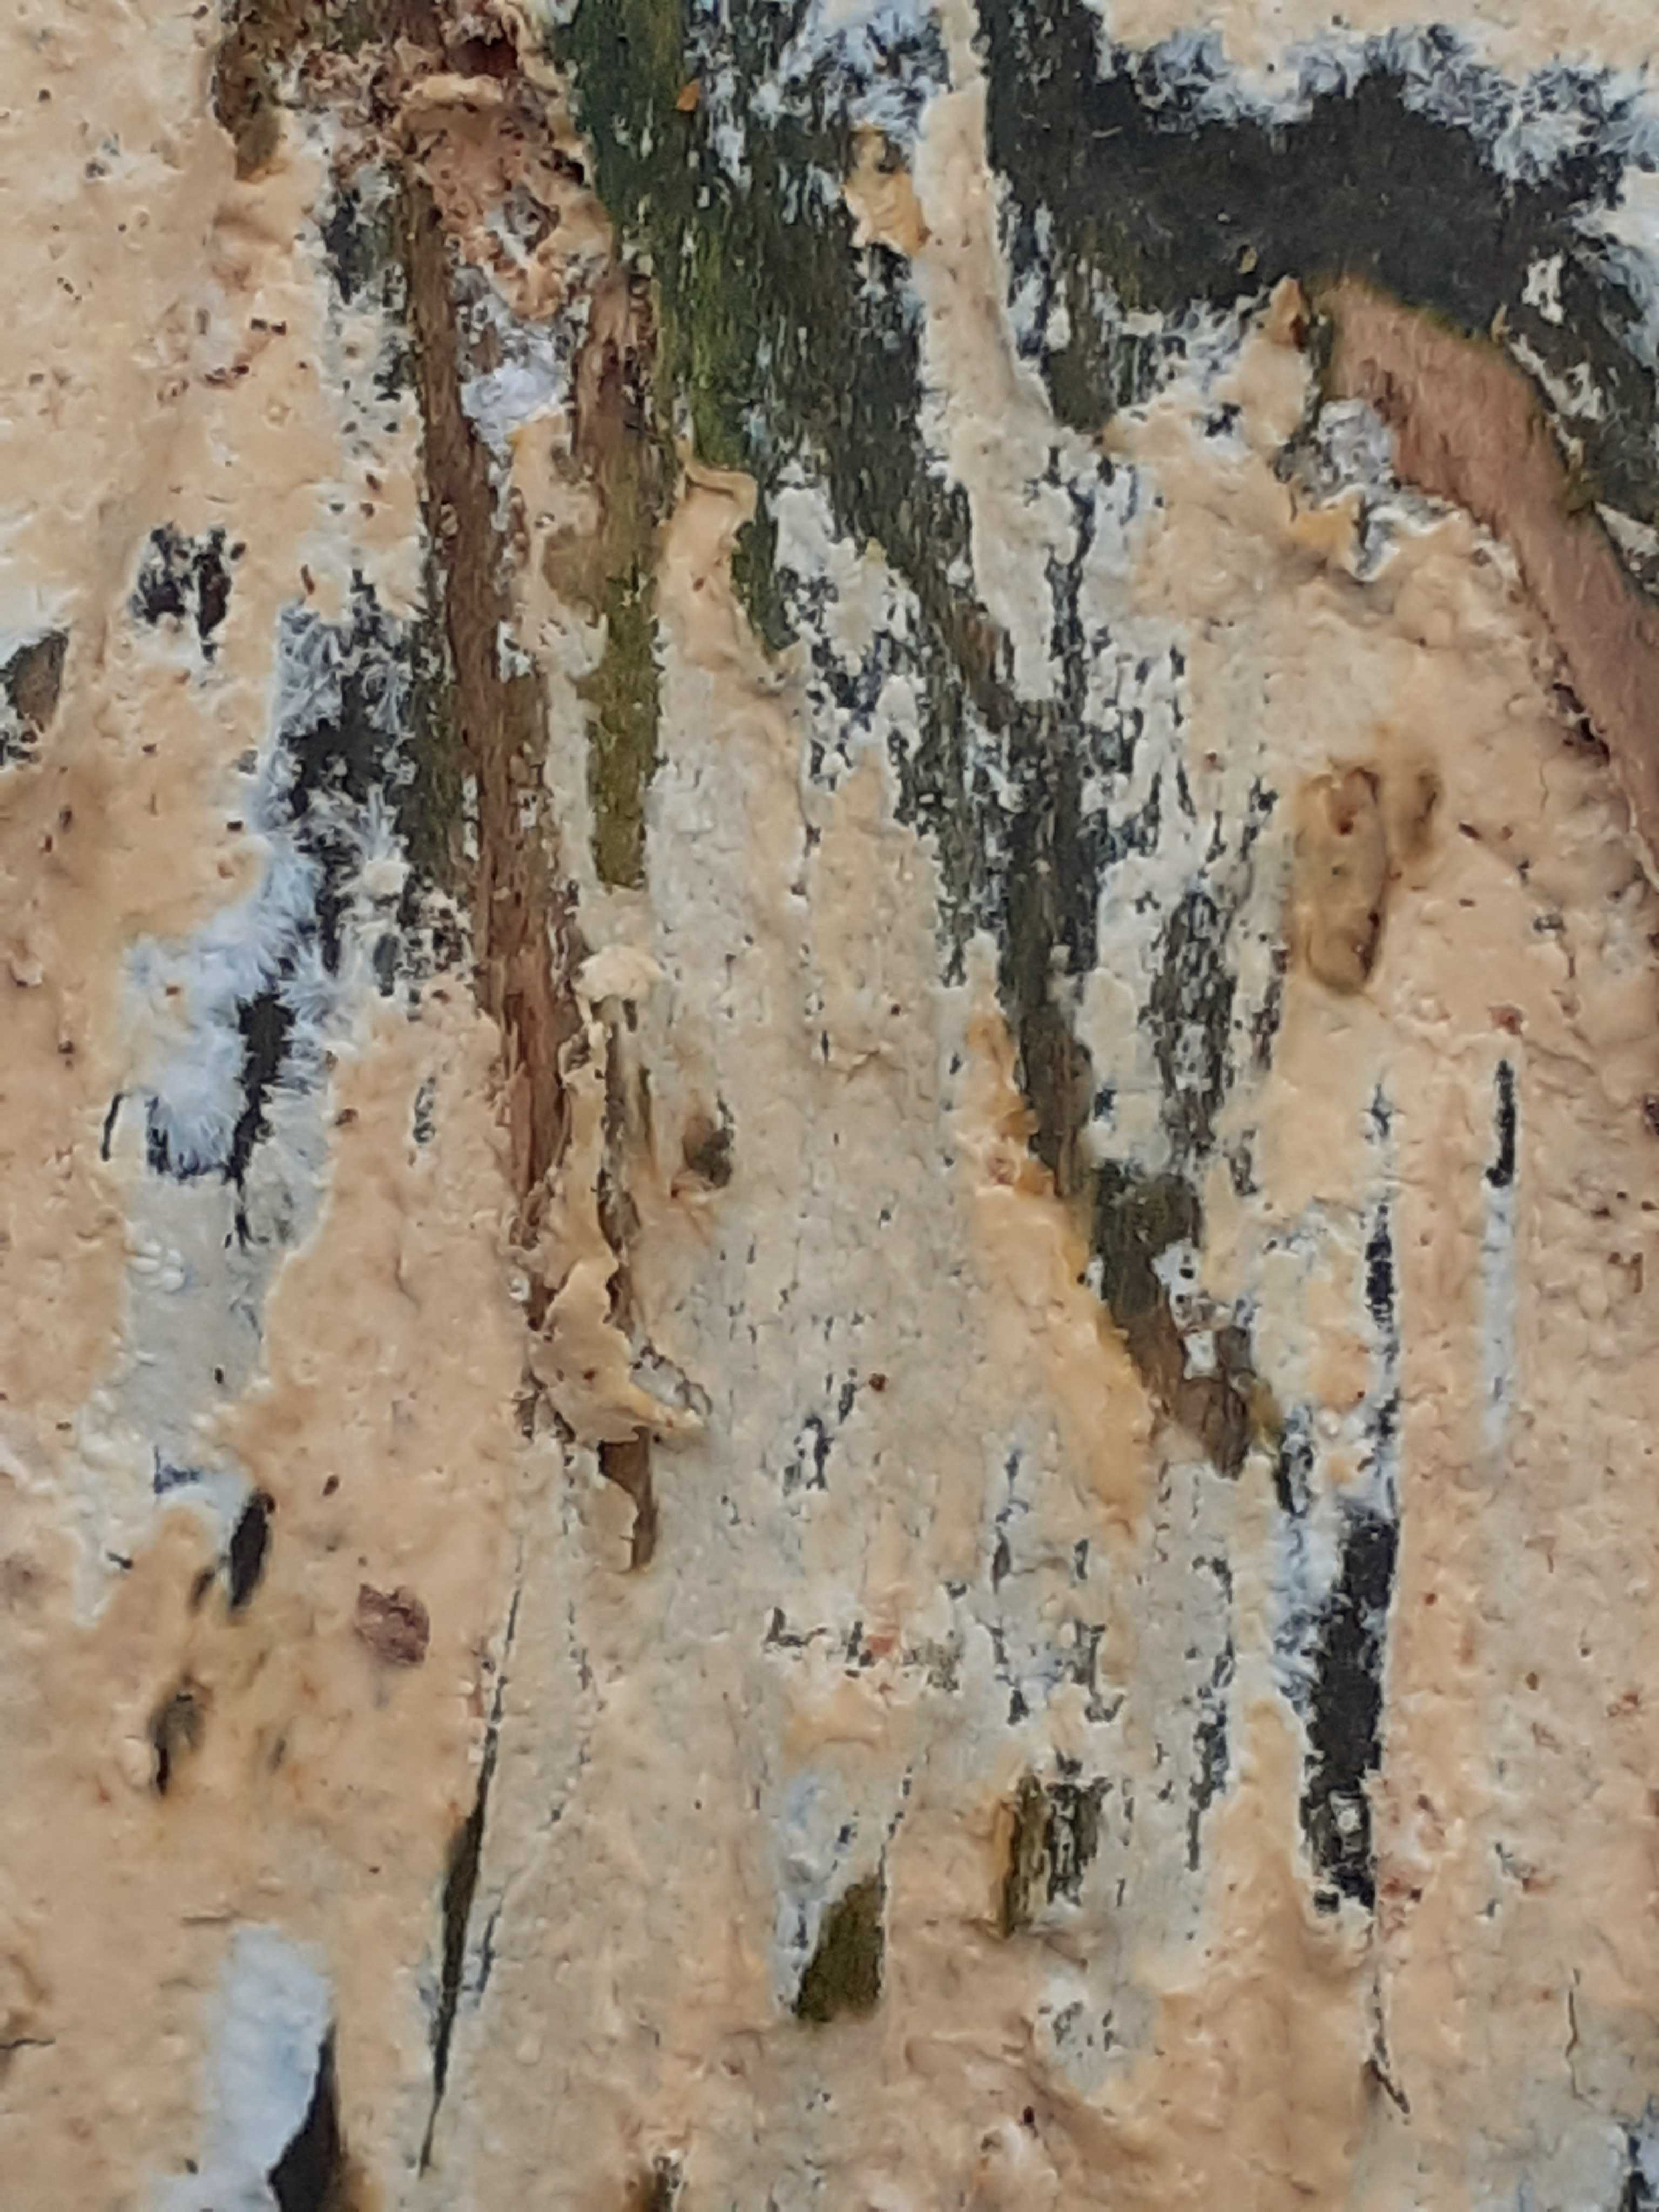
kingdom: Fungi
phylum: Basidiomycota
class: Agaricomycetes
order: Russulales
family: Peniophoraceae
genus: Gloiothele
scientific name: Gloiothele citrina
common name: citronskorpe
